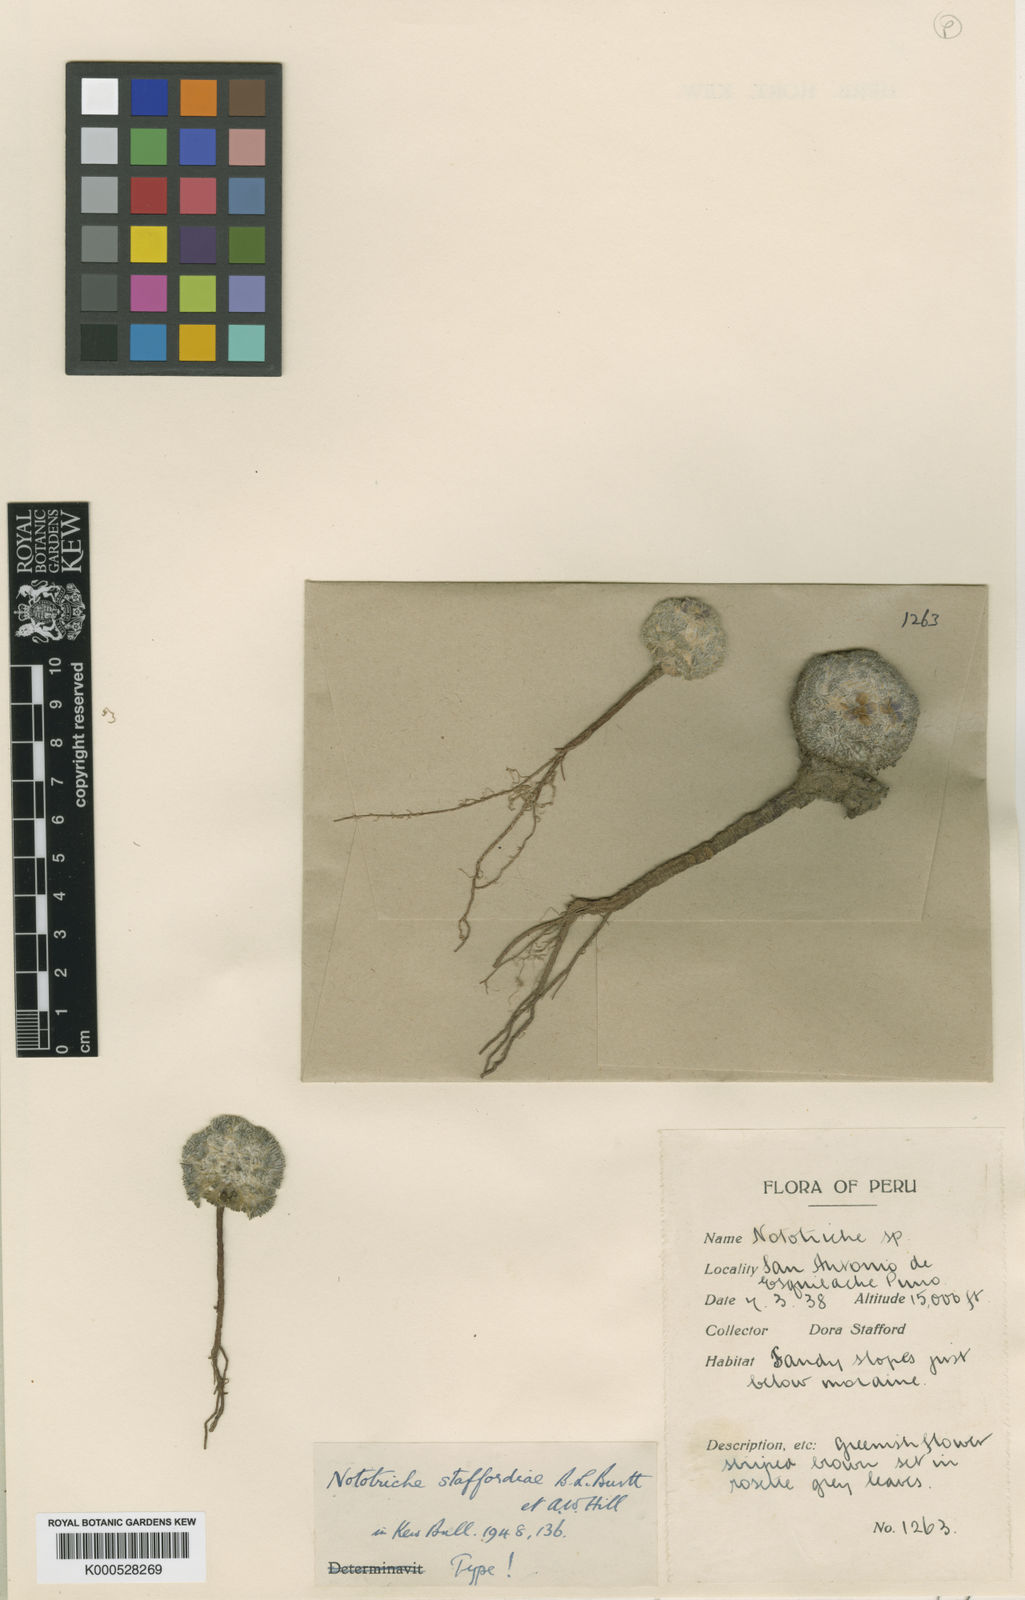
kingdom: Plantae
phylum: Tracheophyta
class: Magnoliopsida
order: Malvales
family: Malvaceae
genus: Nototriche
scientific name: Nototriche staffordiae
